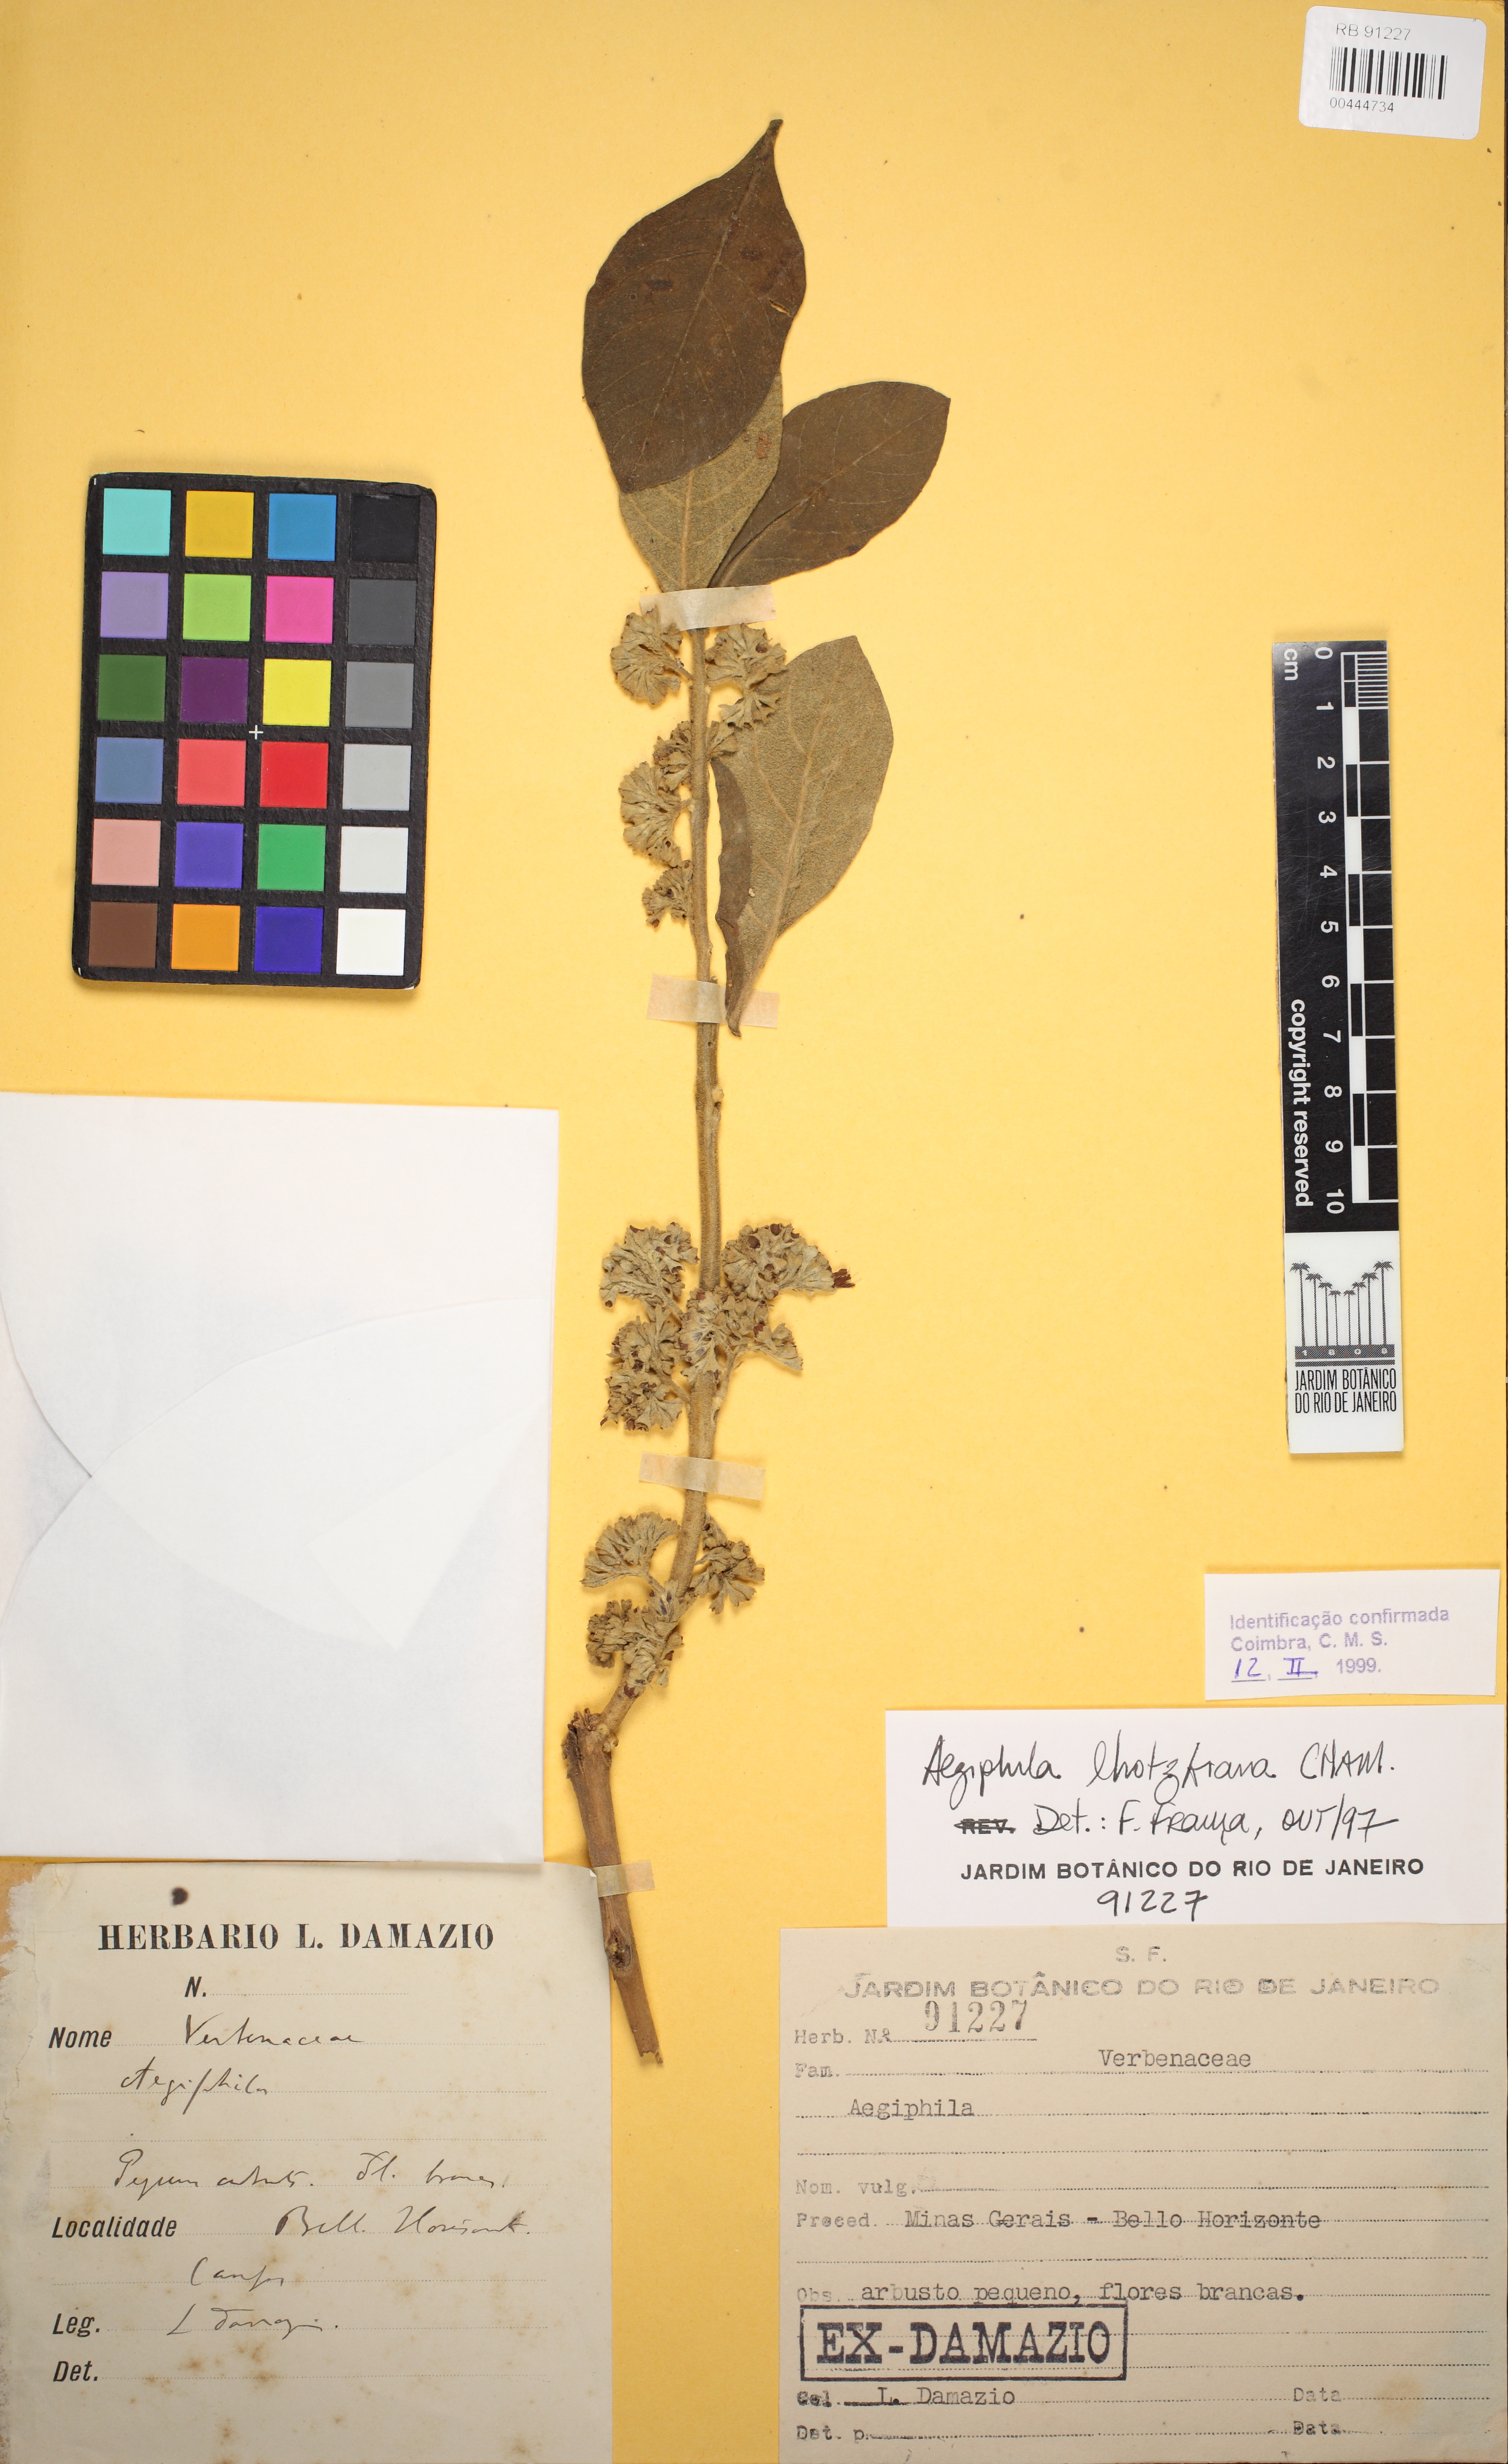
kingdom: Plantae
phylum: Tracheophyta
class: Magnoliopsida
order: Lamiales
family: Lamiaceae
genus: Aegiphila
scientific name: Aegiphila lhotskiana
